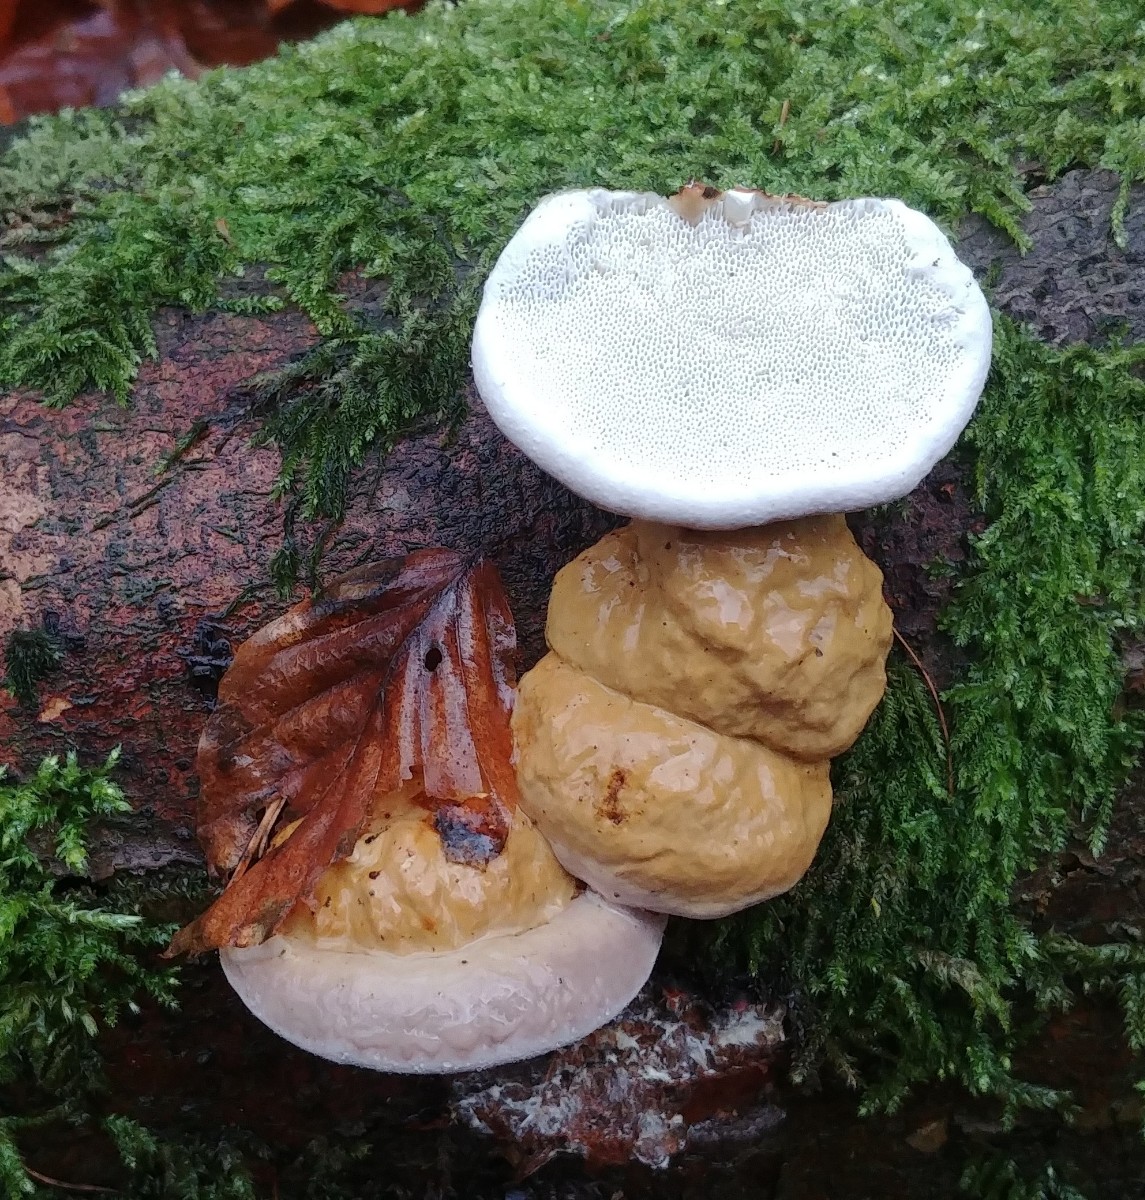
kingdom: Fungi
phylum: Basidiomycota
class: Agaricomycetes
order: Polyporales
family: Fomitopsidaceae
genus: Fomitopsis
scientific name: Fomitopsis pinicola
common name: randbæltet hovporesvamp
